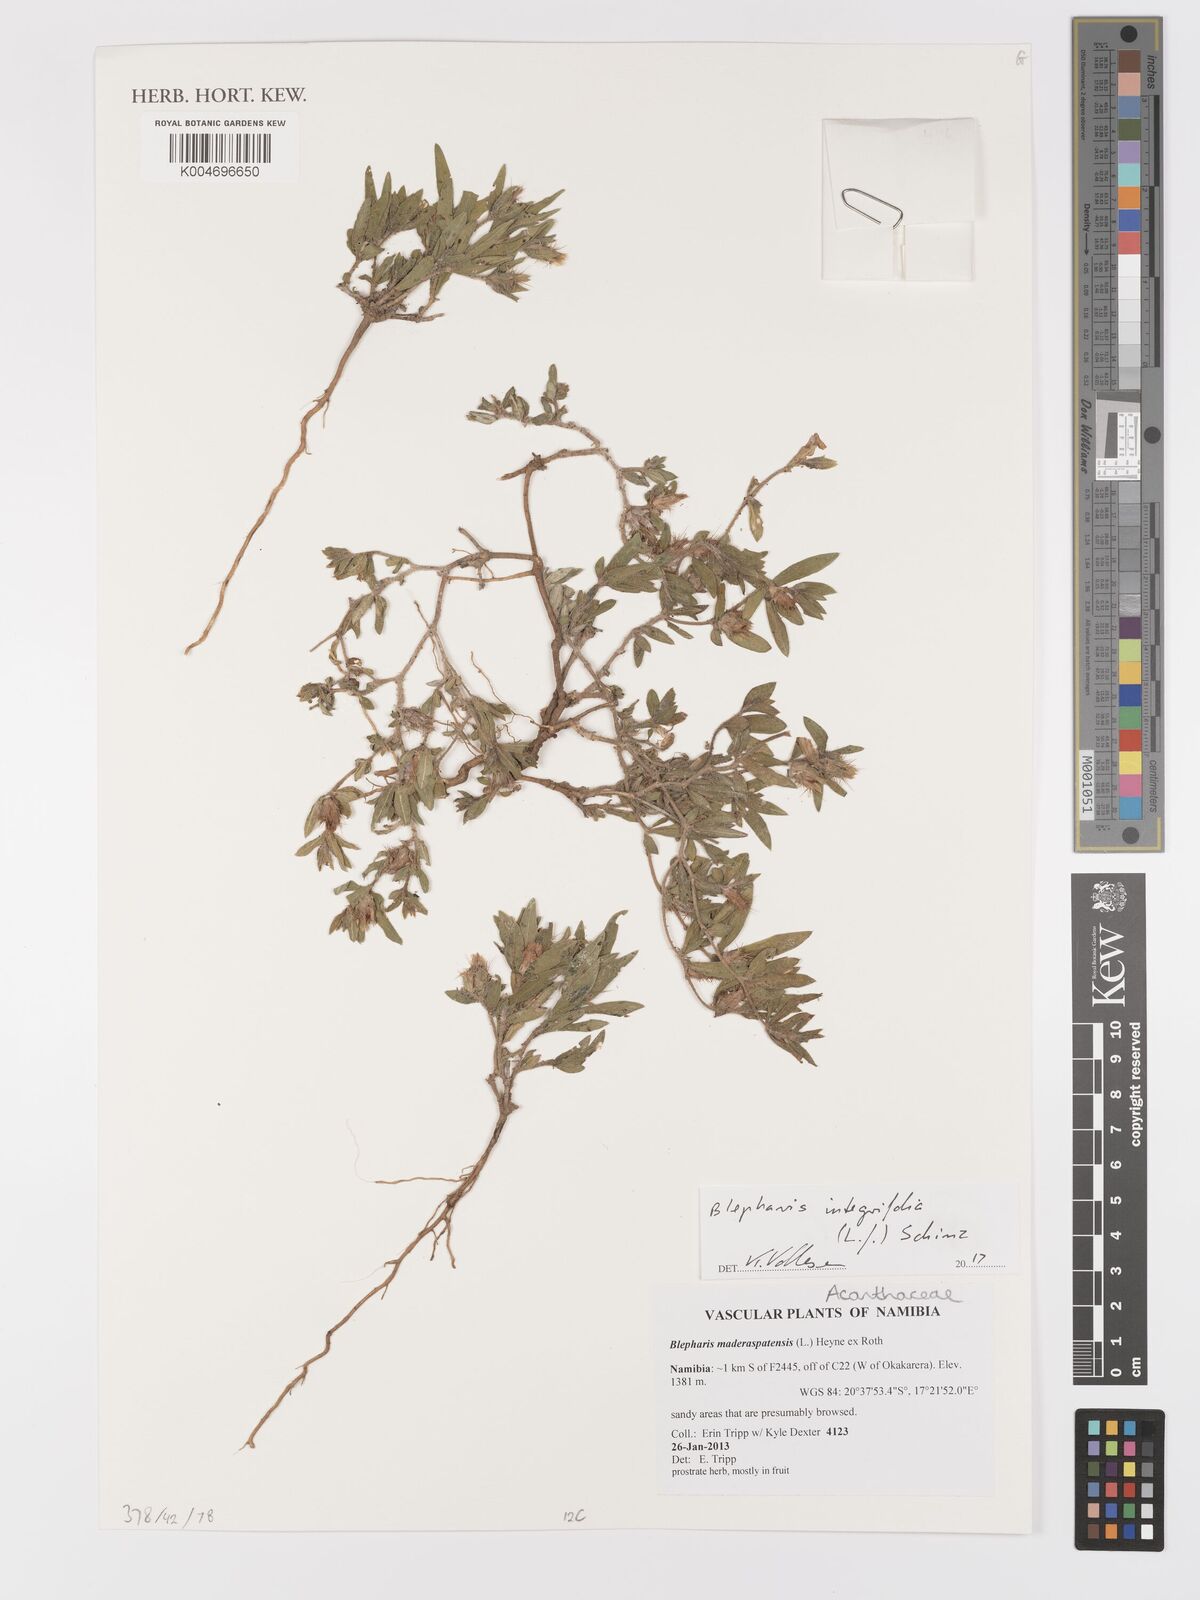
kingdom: Plantae
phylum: Tracheophyta
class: Magnoliopsida
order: Lamiales
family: Acanthaceae
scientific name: Acanthaceae
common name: Acanthaceae
